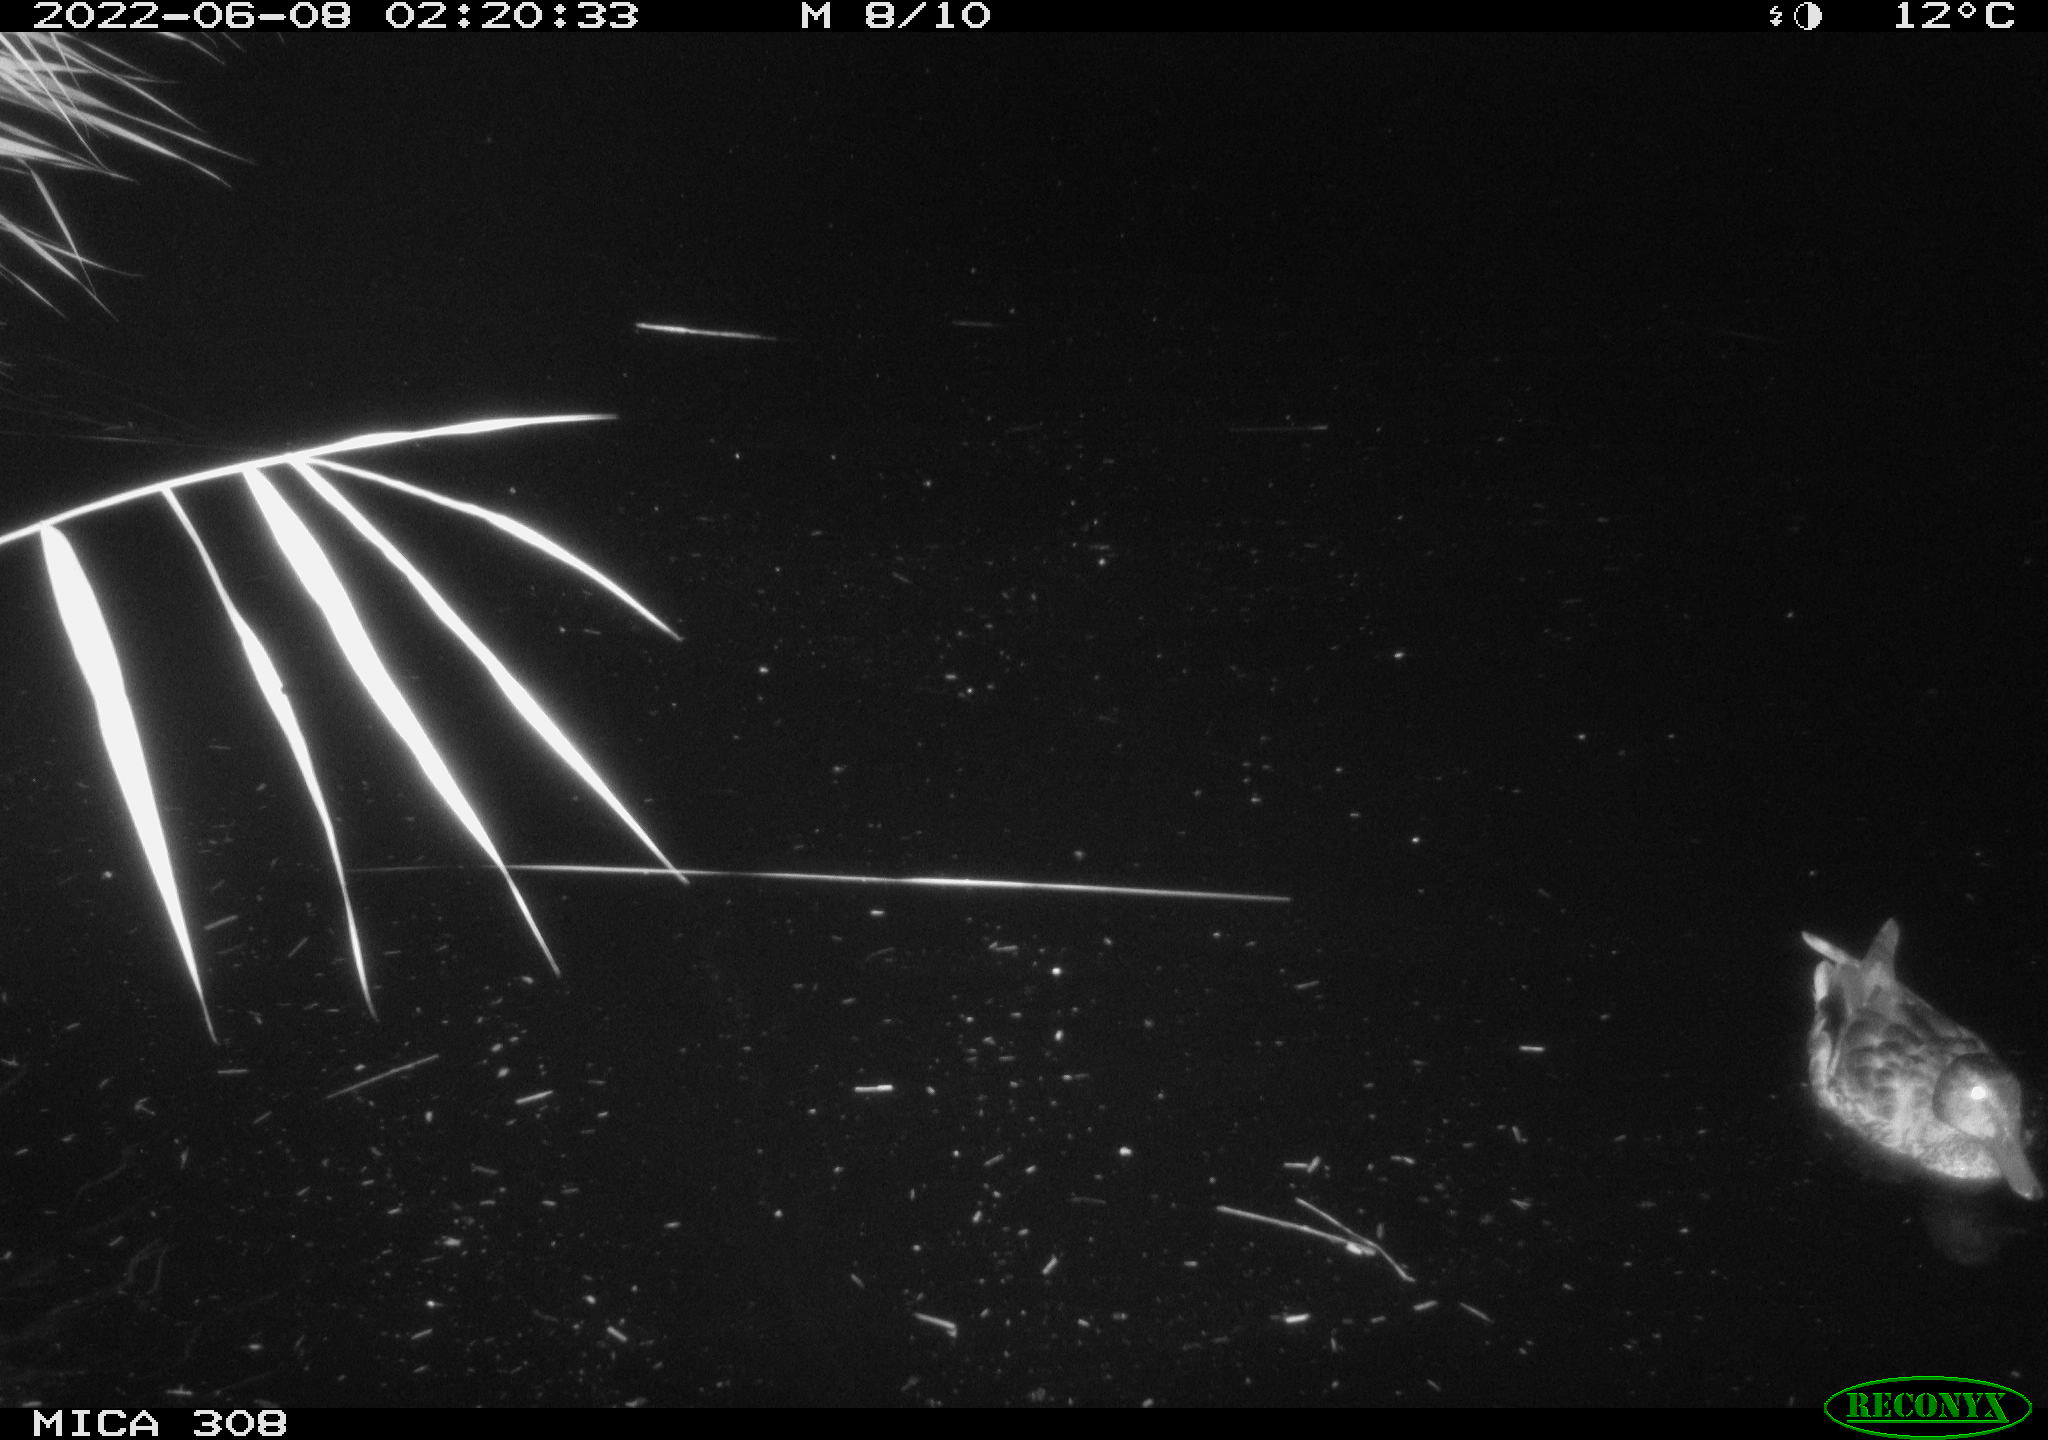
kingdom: Animalia
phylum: Chordata
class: Aves
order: Anseriformes
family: Anatidae
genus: Anas
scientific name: Anas platyrhynchos
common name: Mallard
